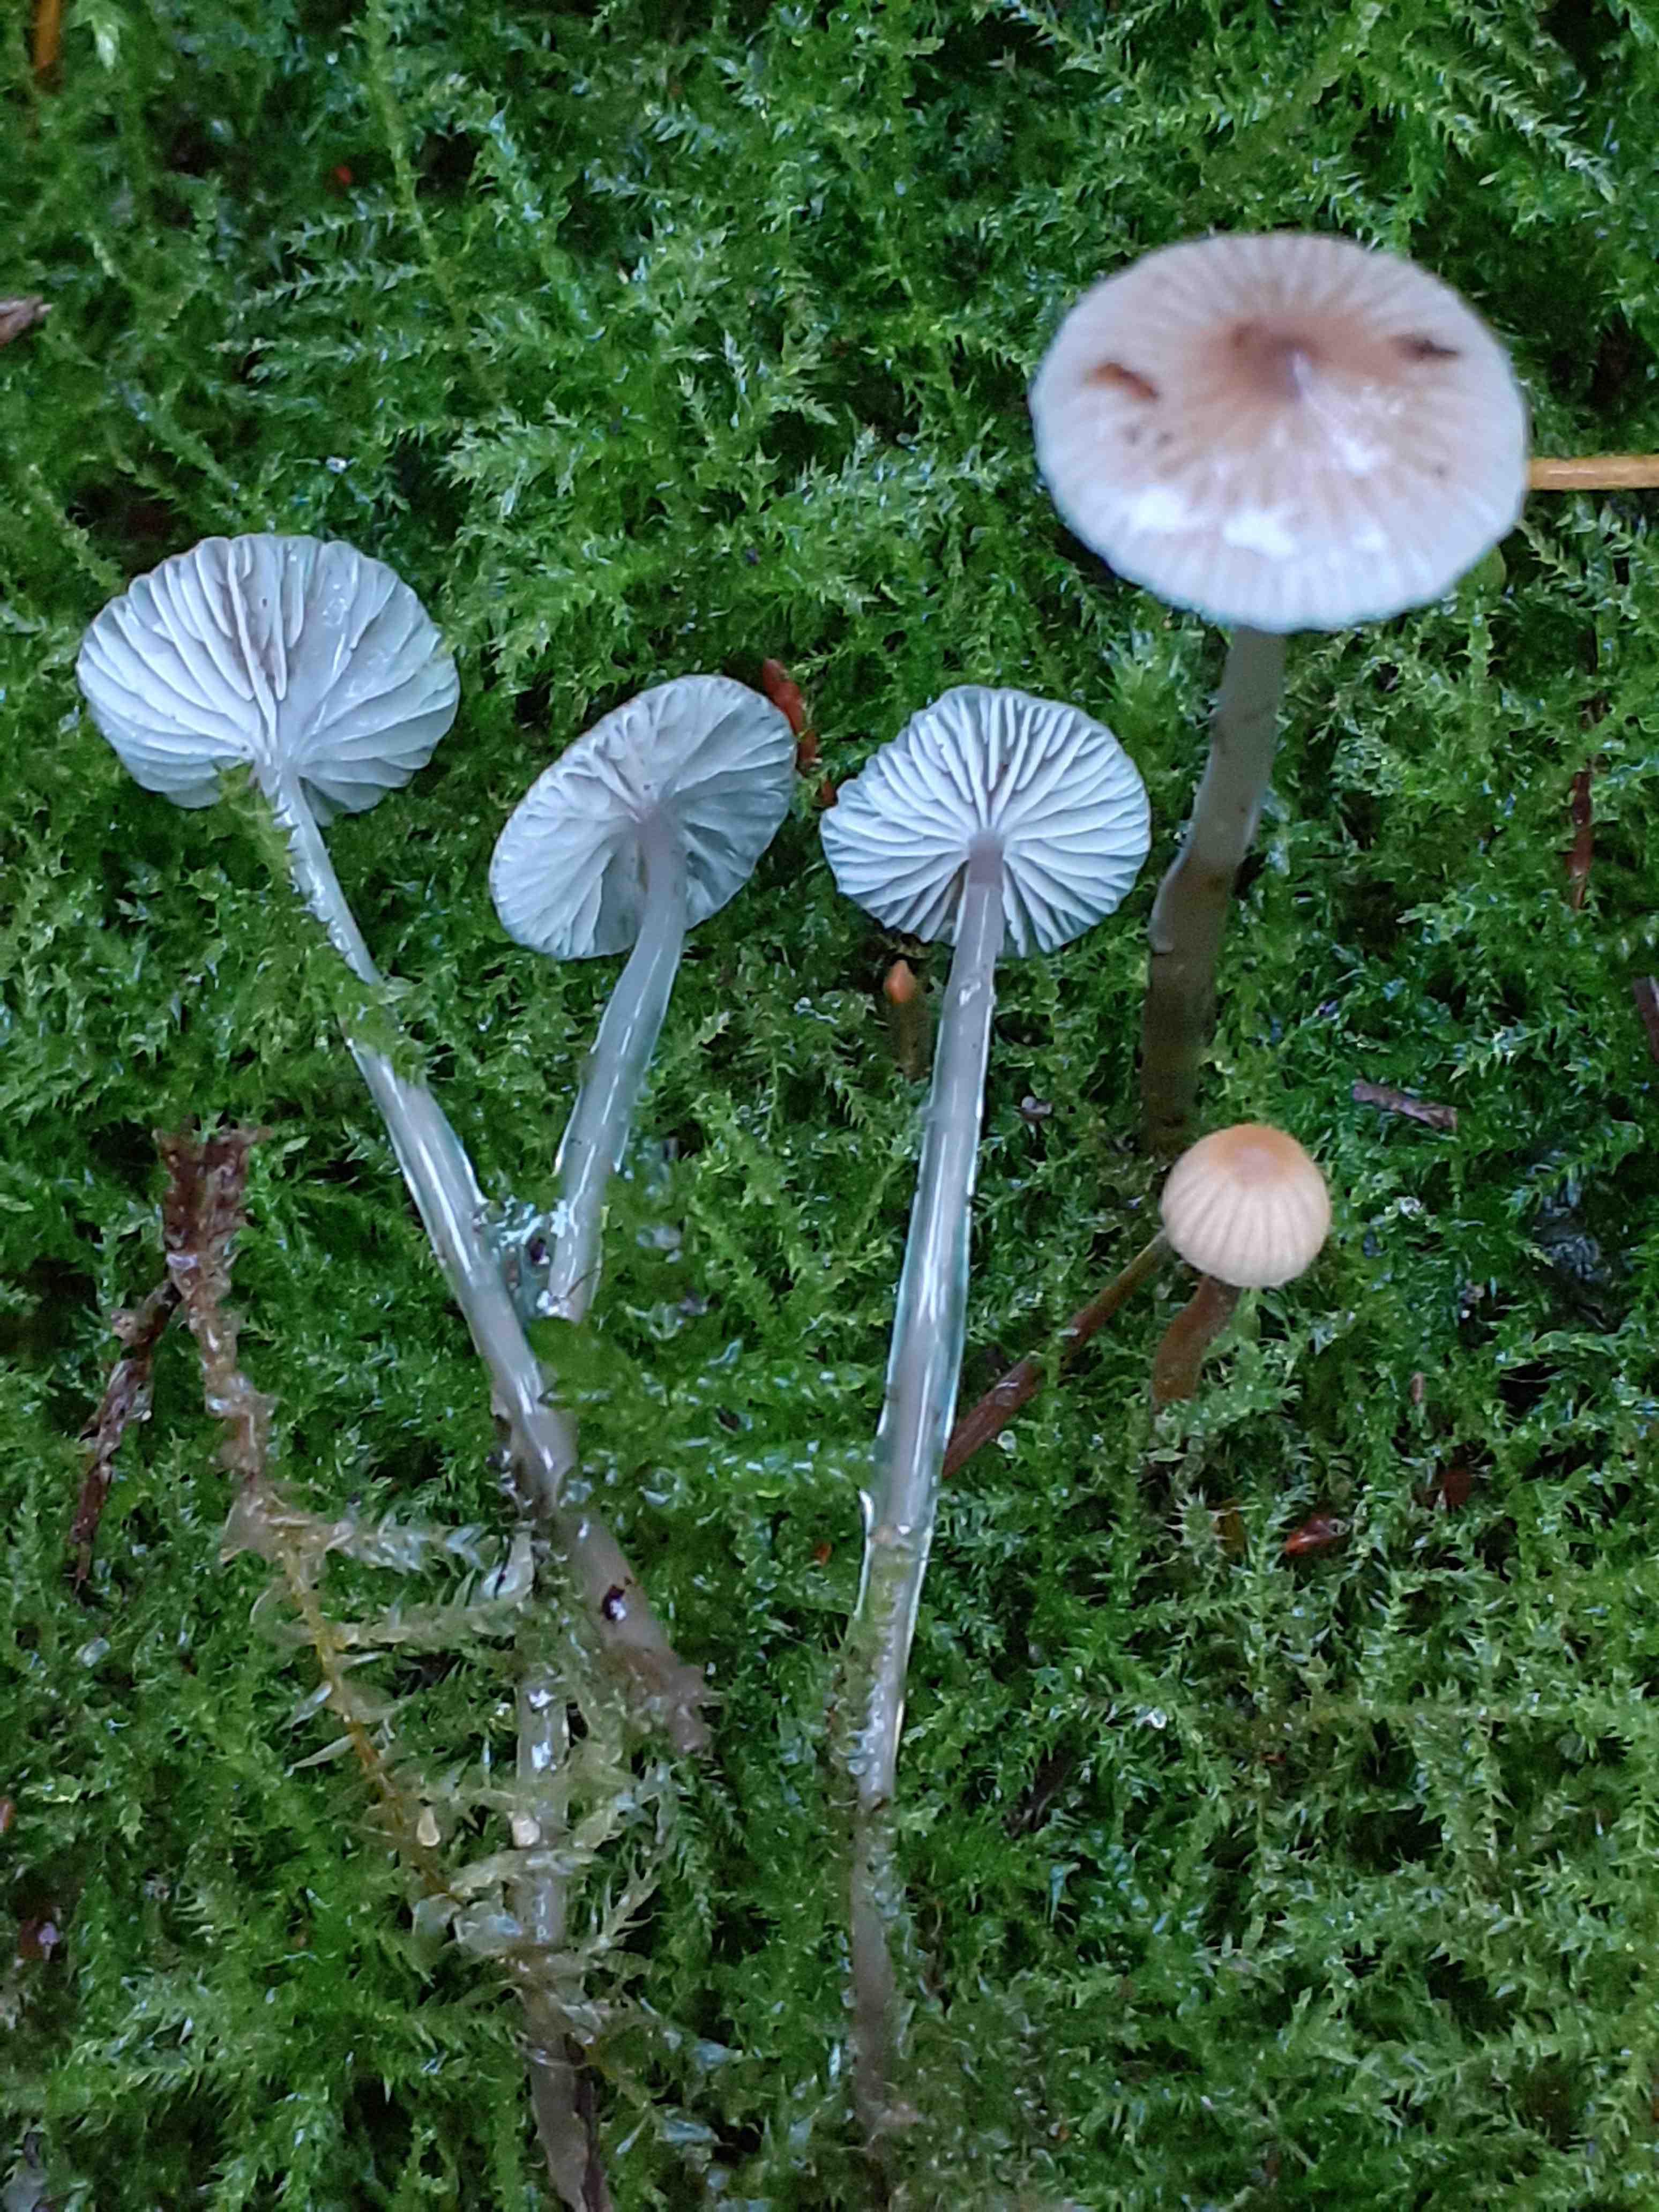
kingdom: Fungi
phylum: Basidiomycota
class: Agaricomycetes
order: Agaricales
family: Mycenaceae
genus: Mycena
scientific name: Mycena
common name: huesvamp
